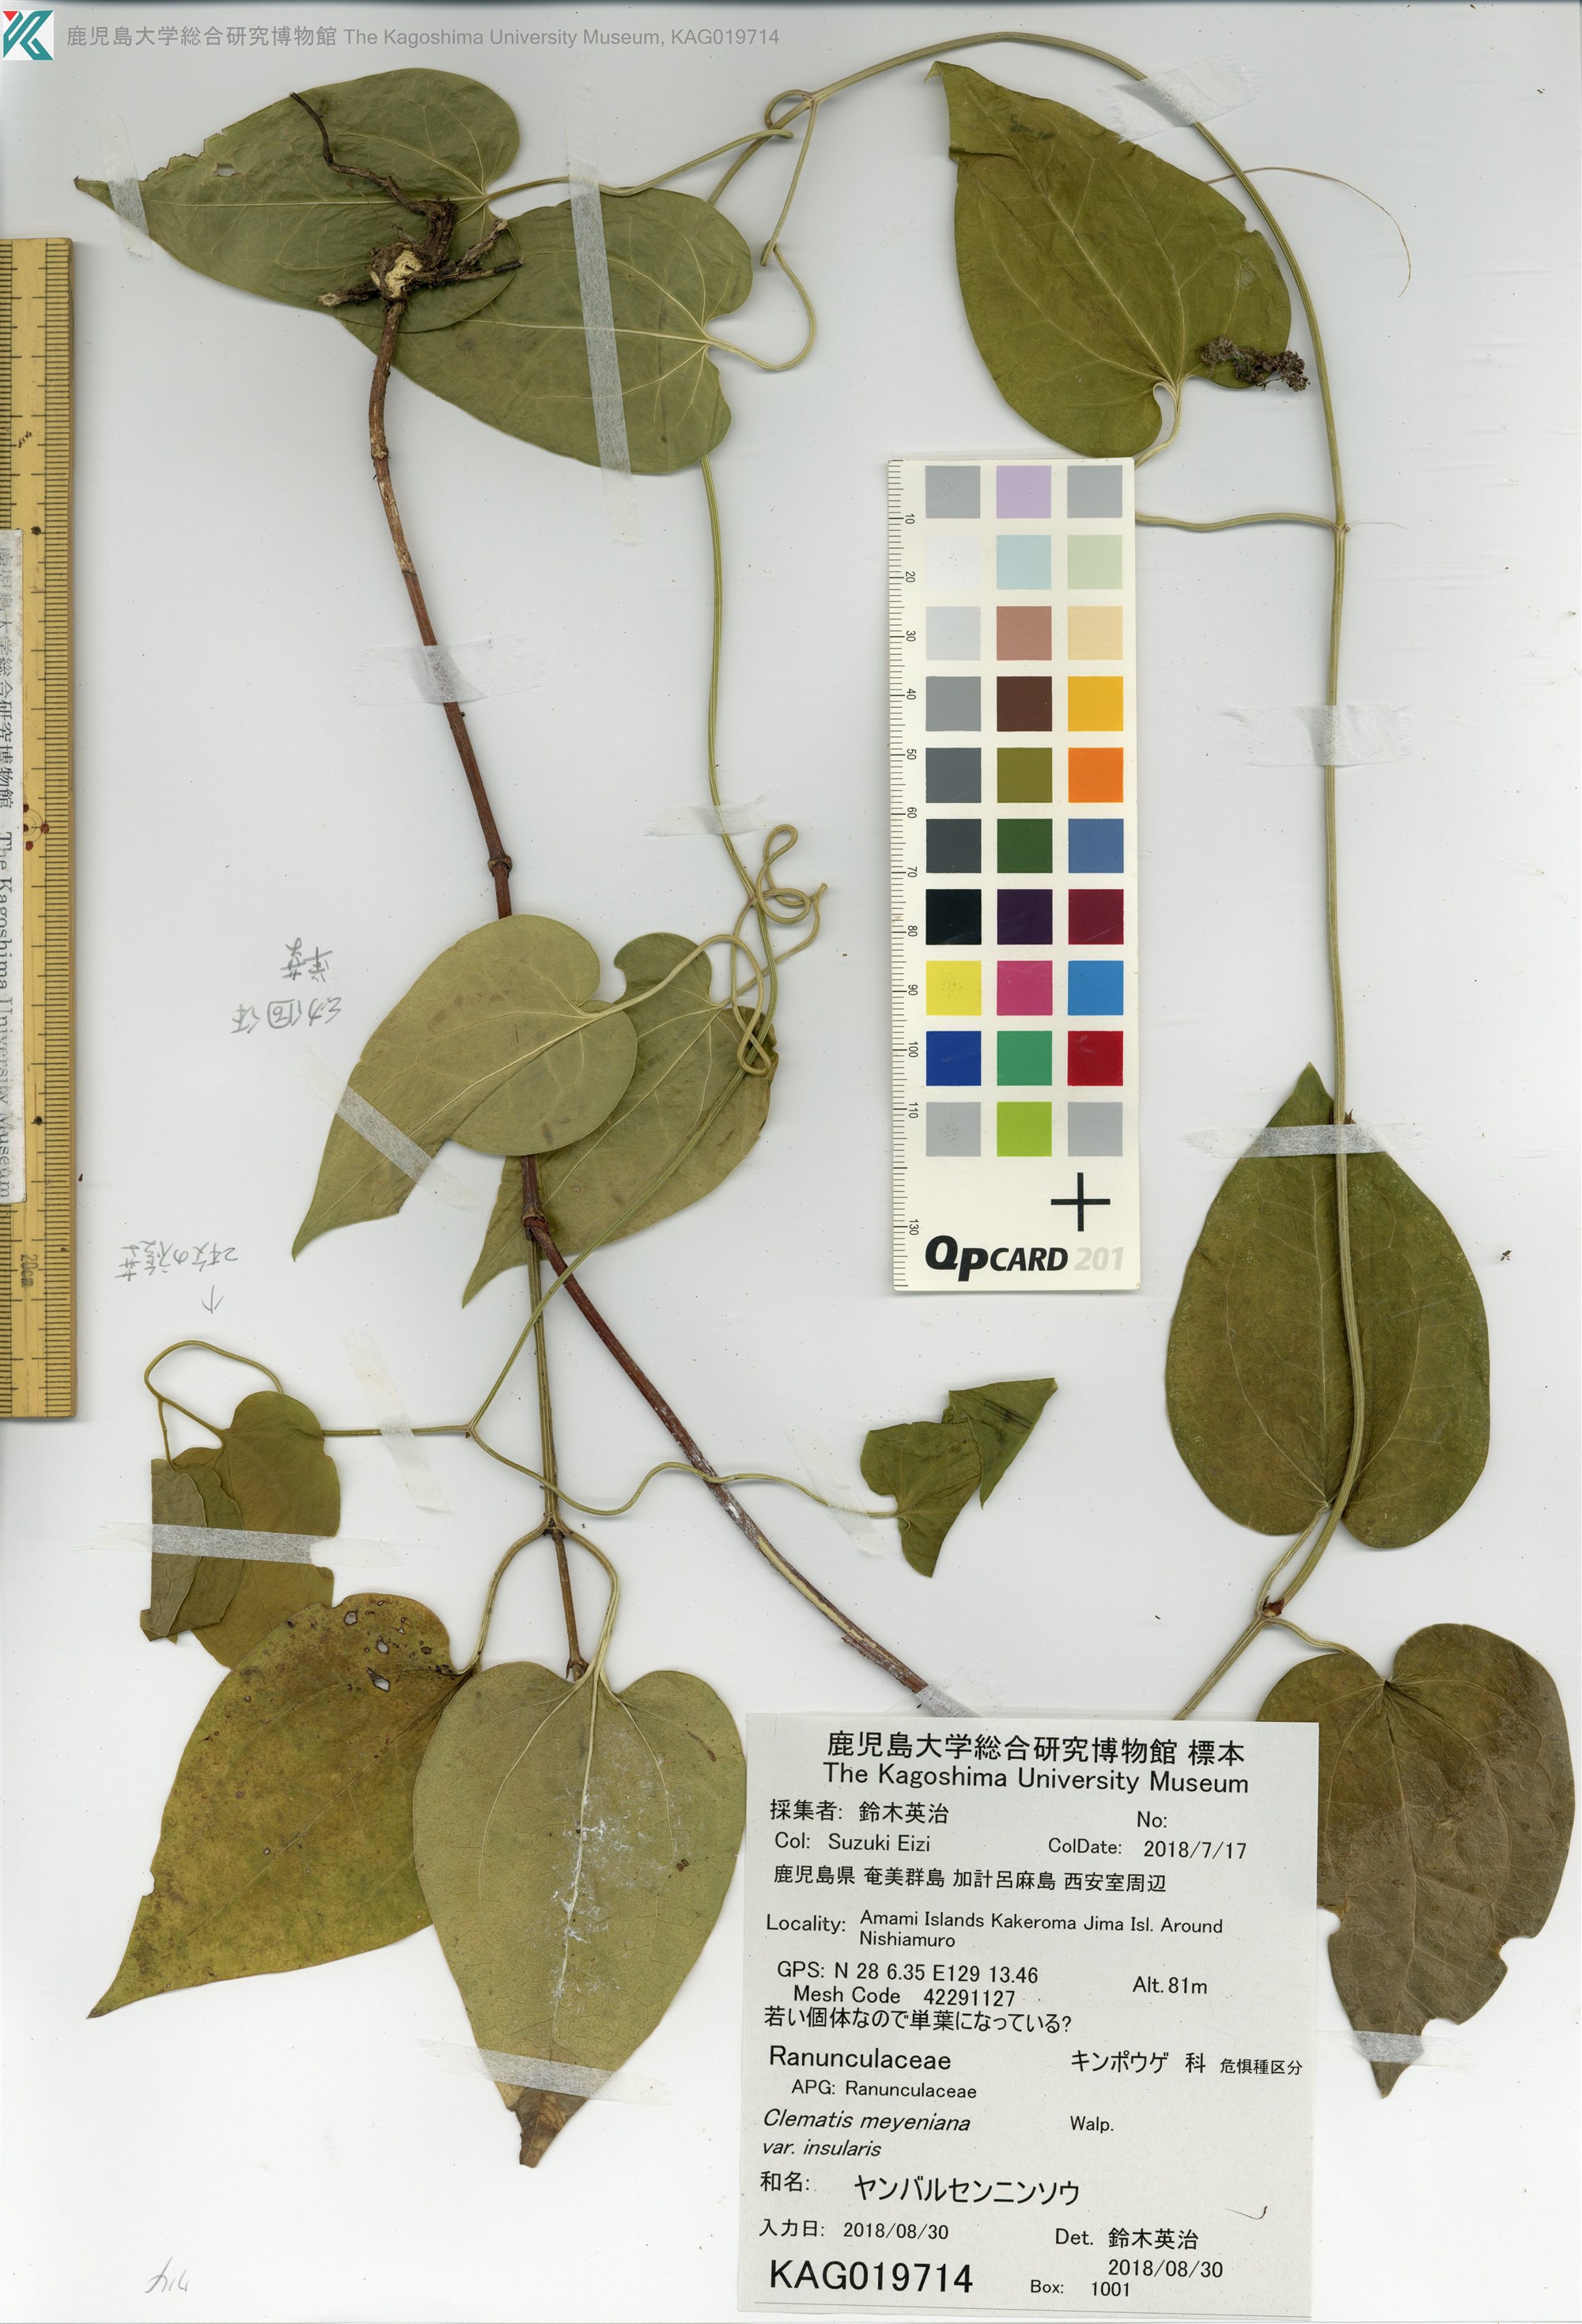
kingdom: Plantae
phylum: Tracheophyta
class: Magnoliopsida
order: Ranunculales
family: Ranunculaceae
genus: Clematis
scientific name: Clematis meyeniana
